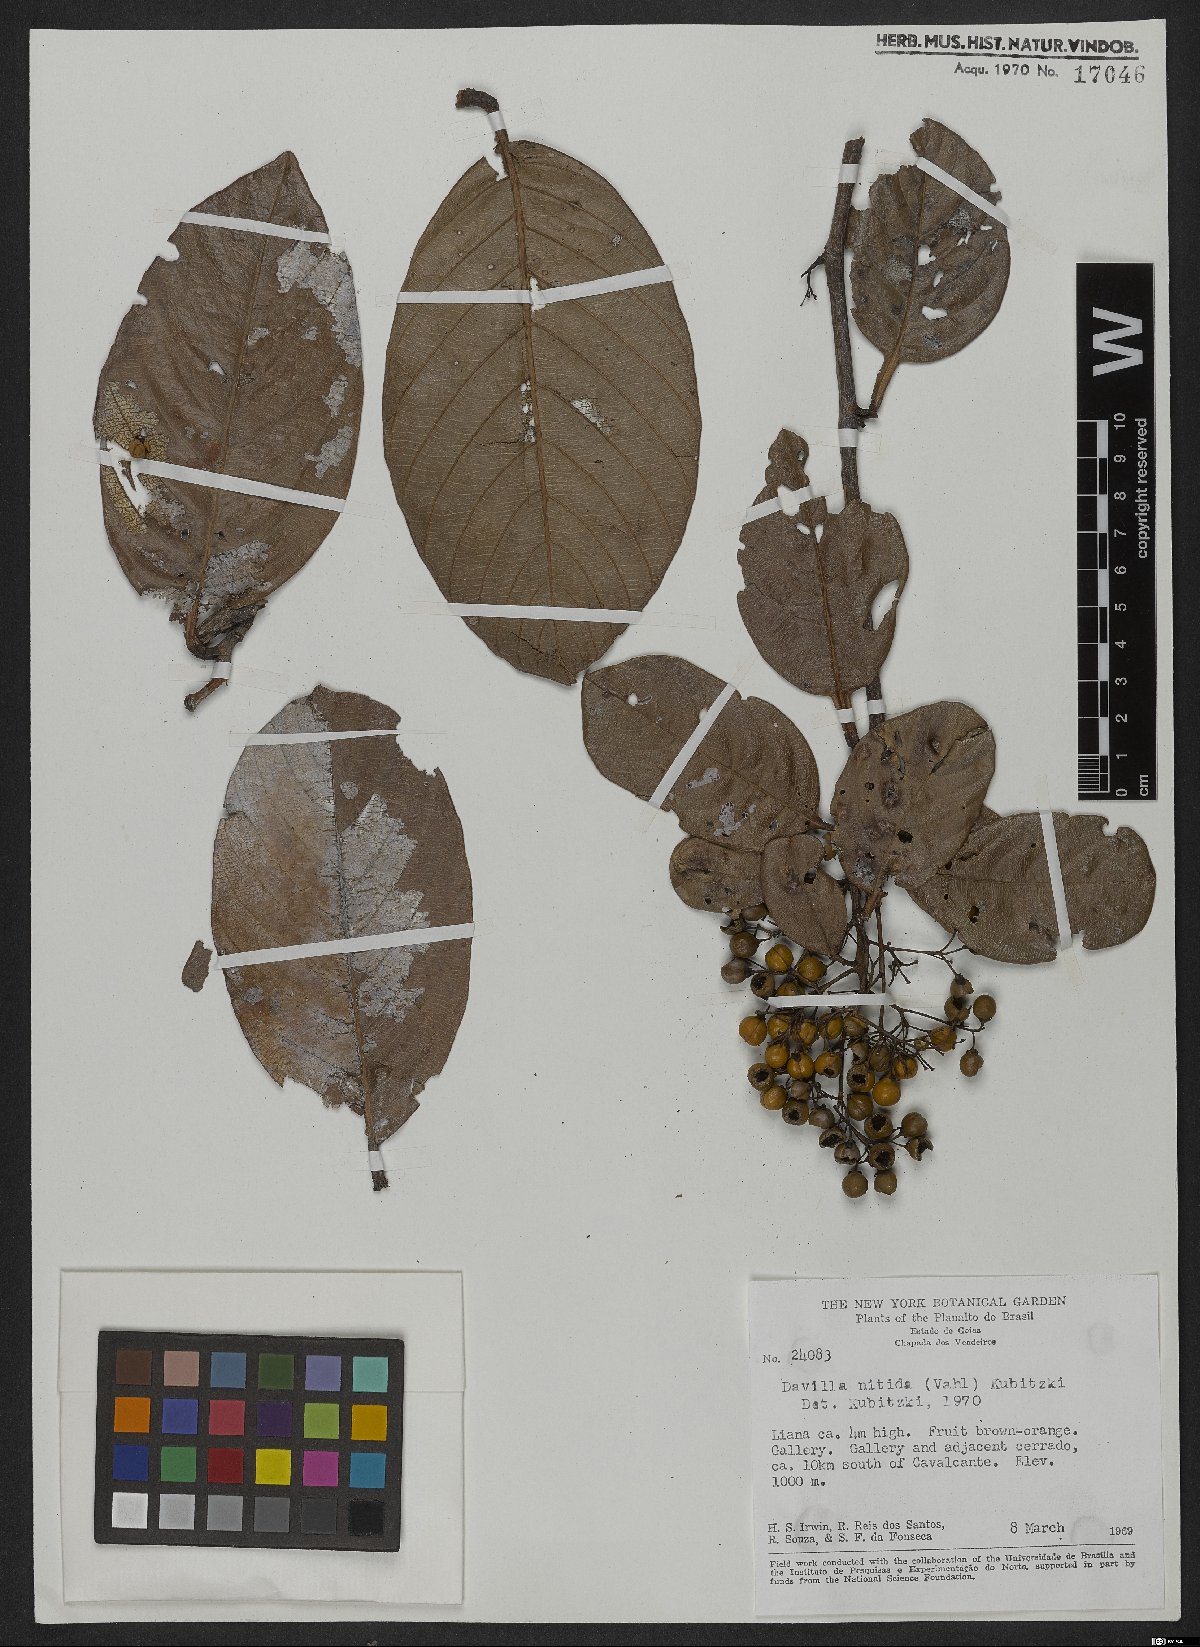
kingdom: Plantae
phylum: Tracheophyta
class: Magnoliopsida
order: Dilleniales
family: Dilleniaceae
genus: Davilla
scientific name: Davilla nitida
